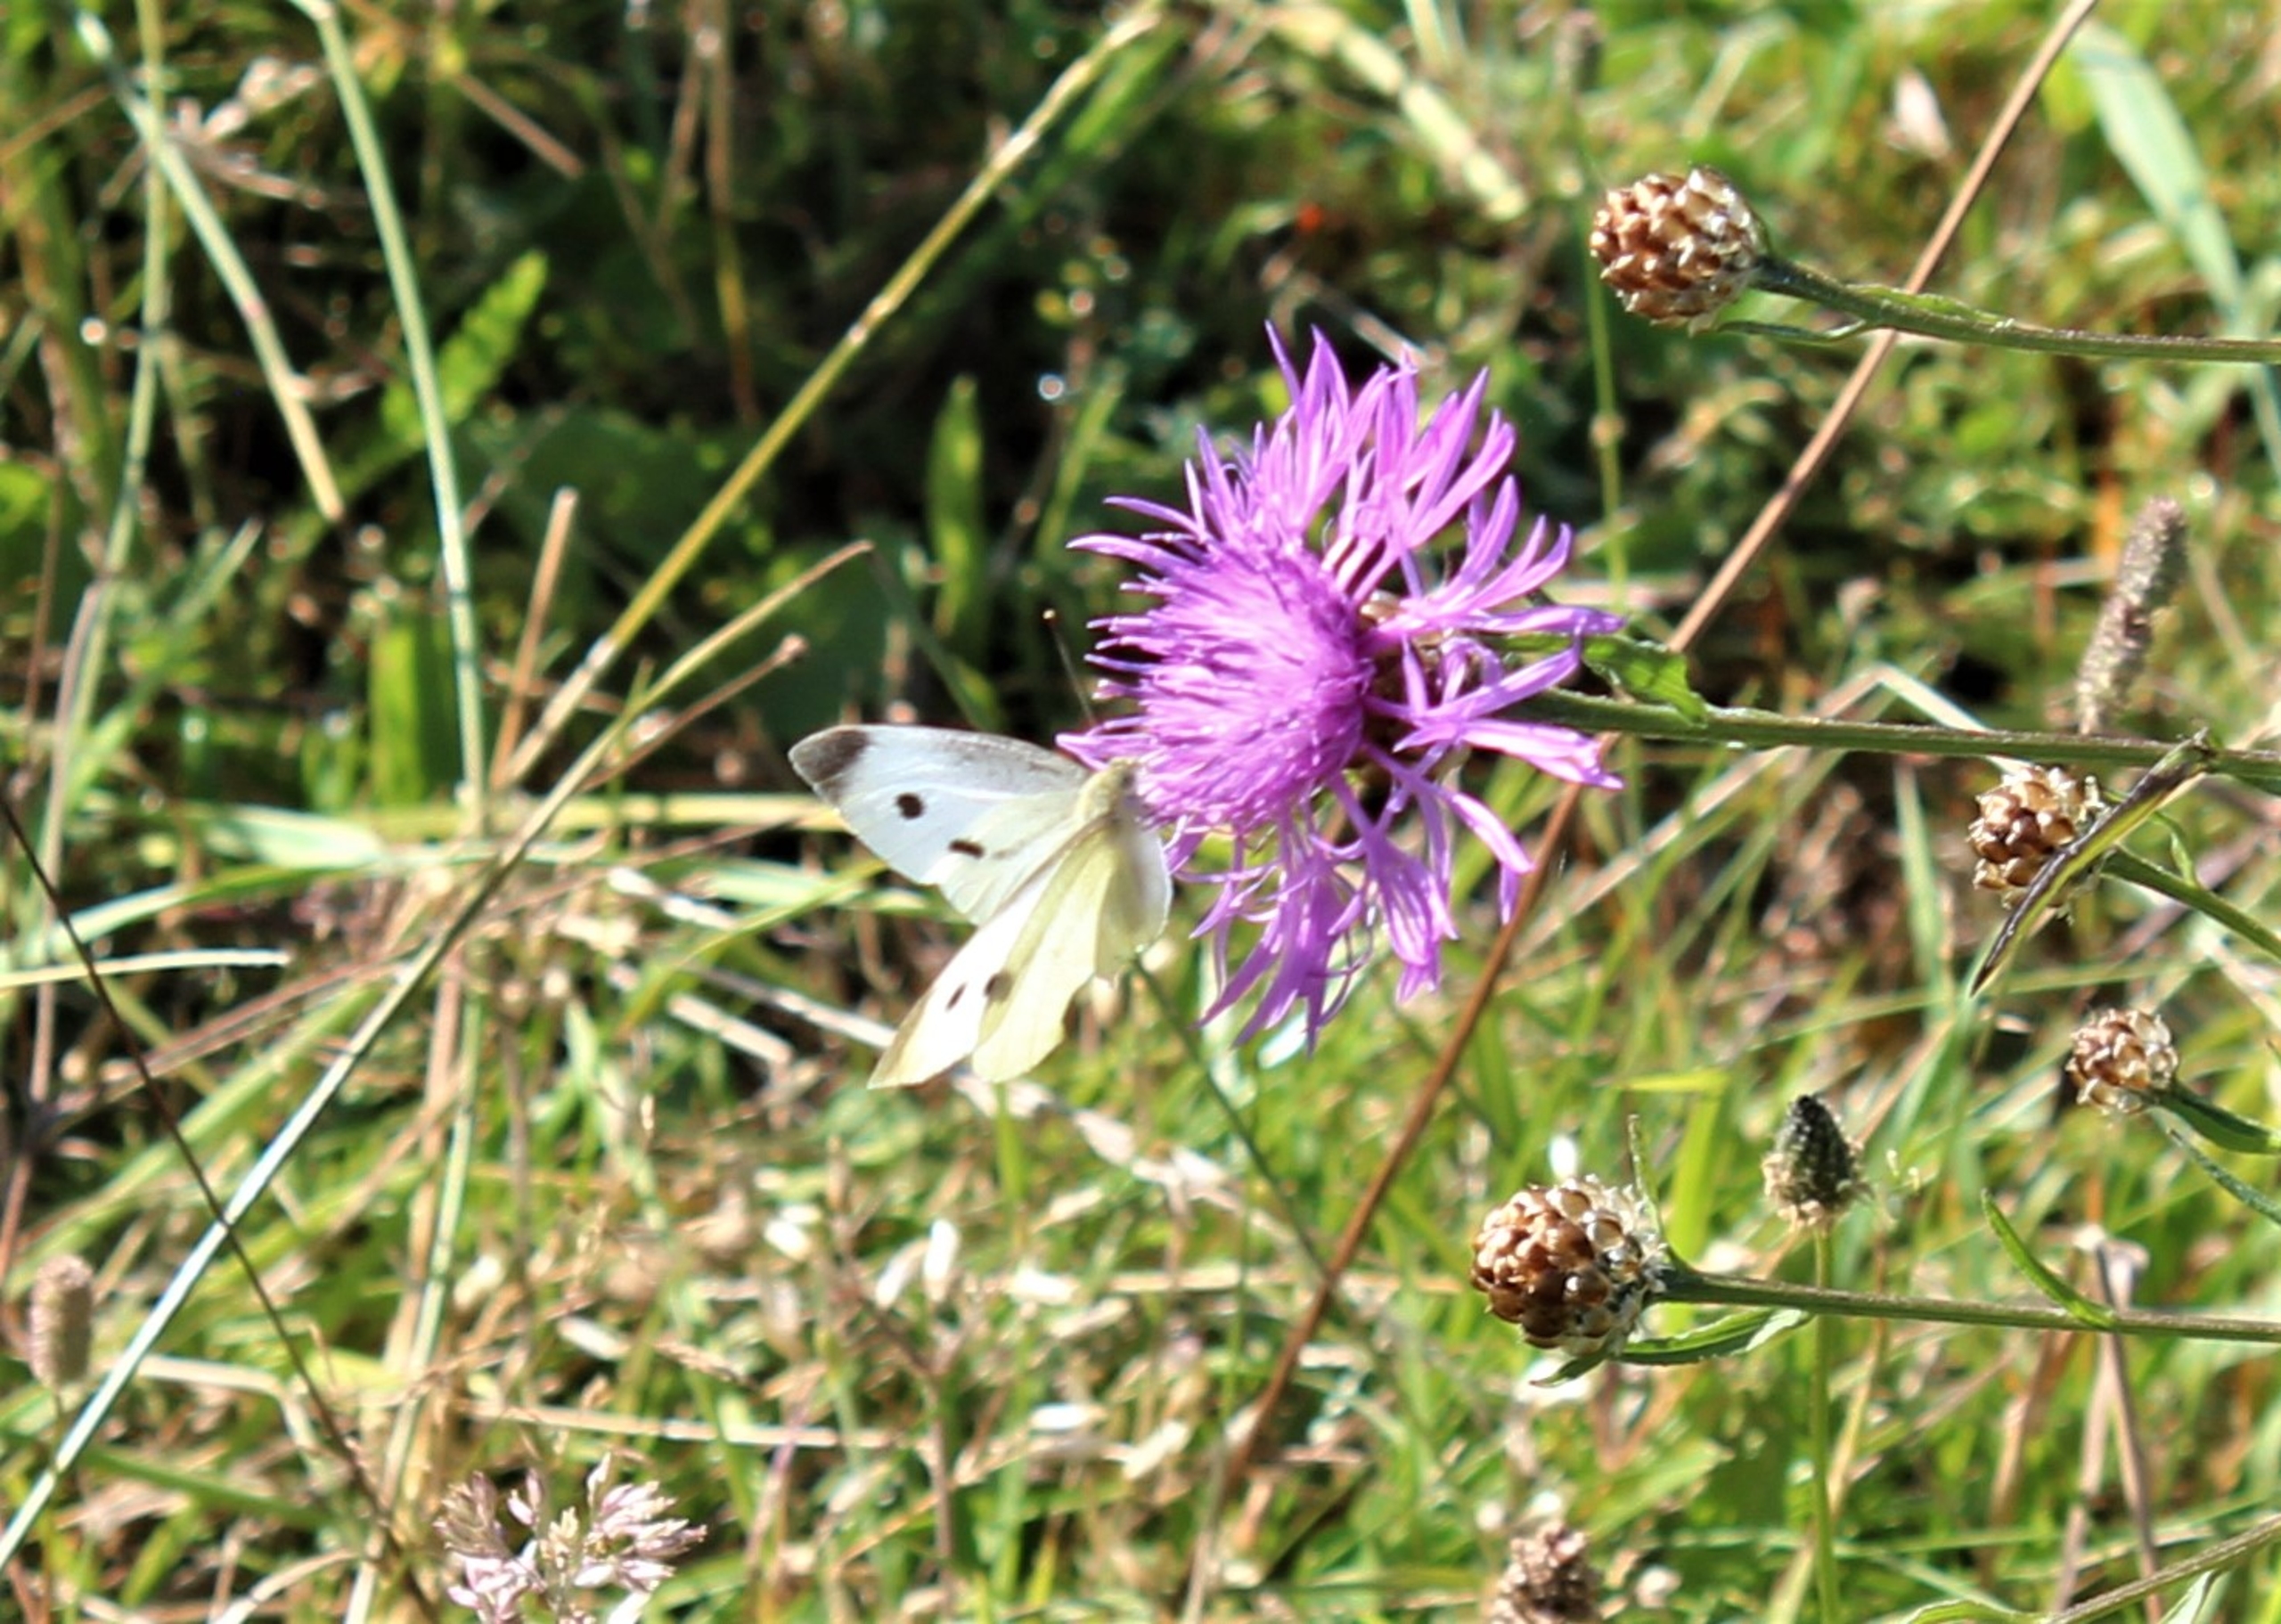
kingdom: Animalia
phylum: Arthropoda
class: Insecta
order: Lepidoptera
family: Pieridae
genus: Pieris
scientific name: Pieris rapae
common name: Lille kålsommerfugl
